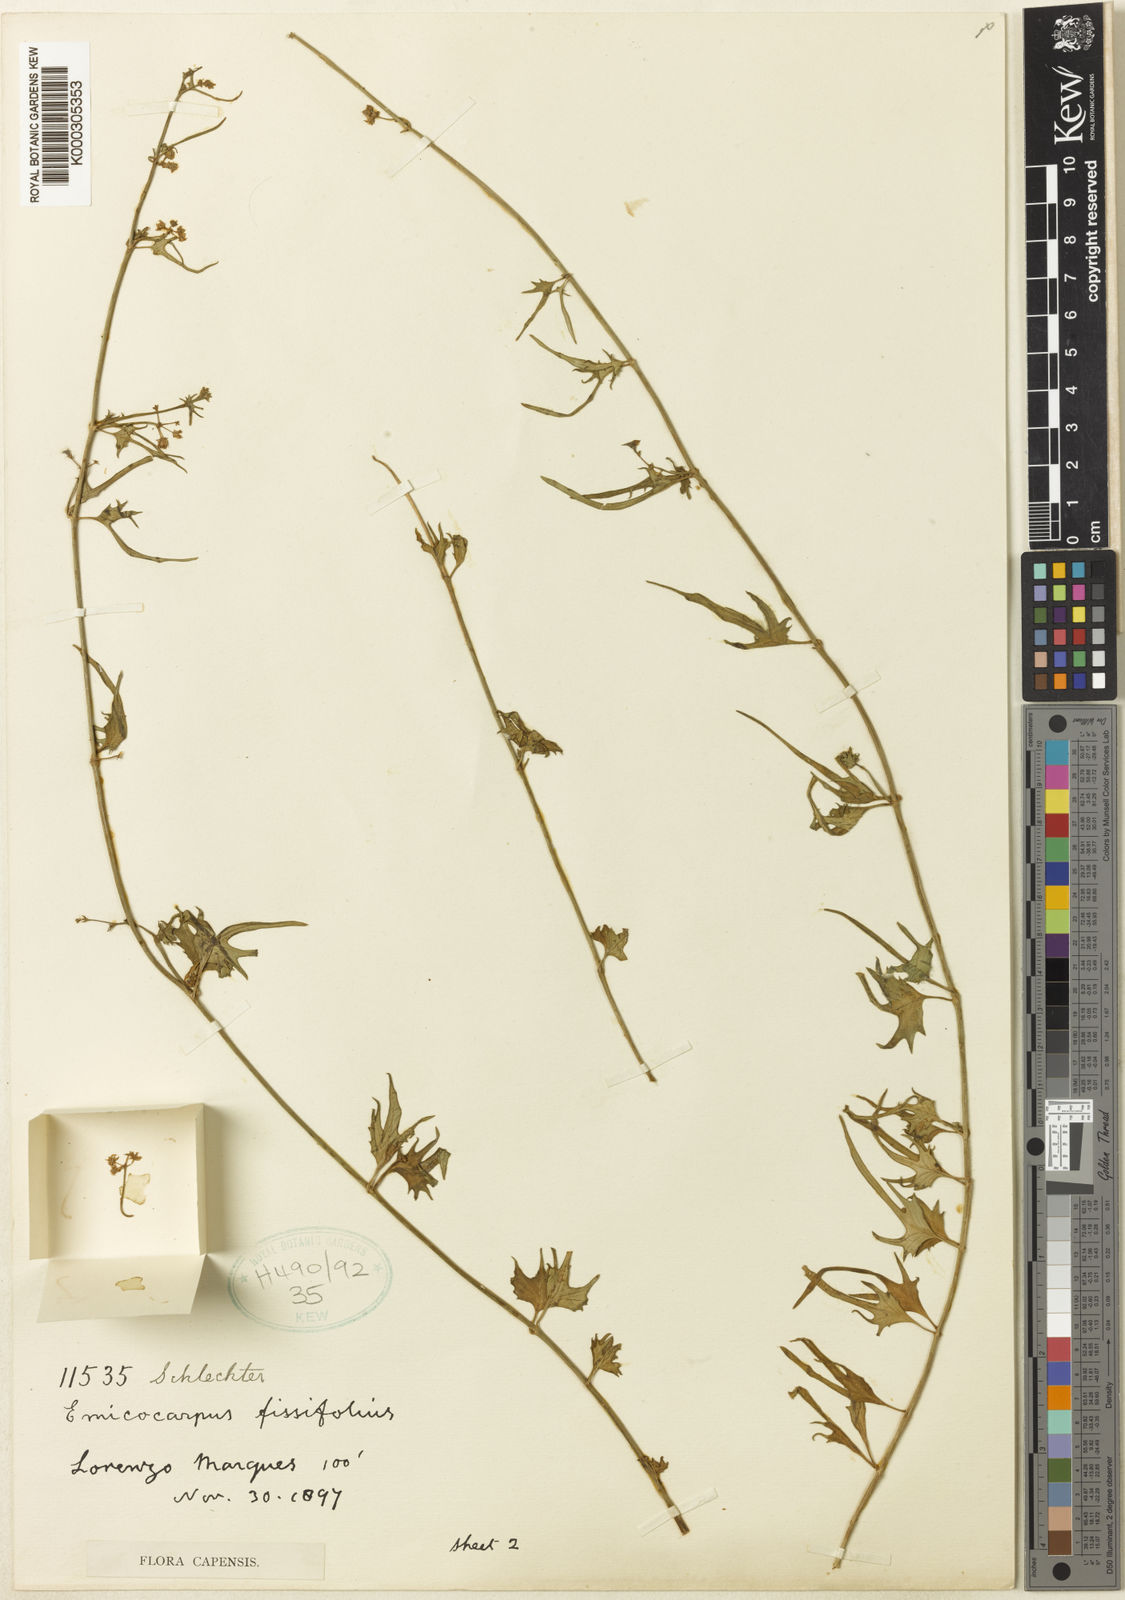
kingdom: Plantae
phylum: Tracheophyta
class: Magnoliopsida
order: Gentianales
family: Apocynaceae
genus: Emicocarpus
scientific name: Emicocarpus fissifolius
